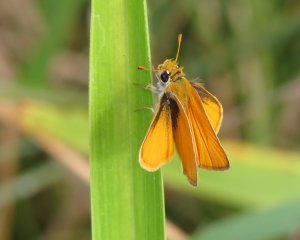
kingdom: Animalia
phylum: Arthropoda
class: Insecta
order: Lepidoptera
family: Hesperiidae
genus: Copaeodes
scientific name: Copaeodes minima
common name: Southern Skipperling
